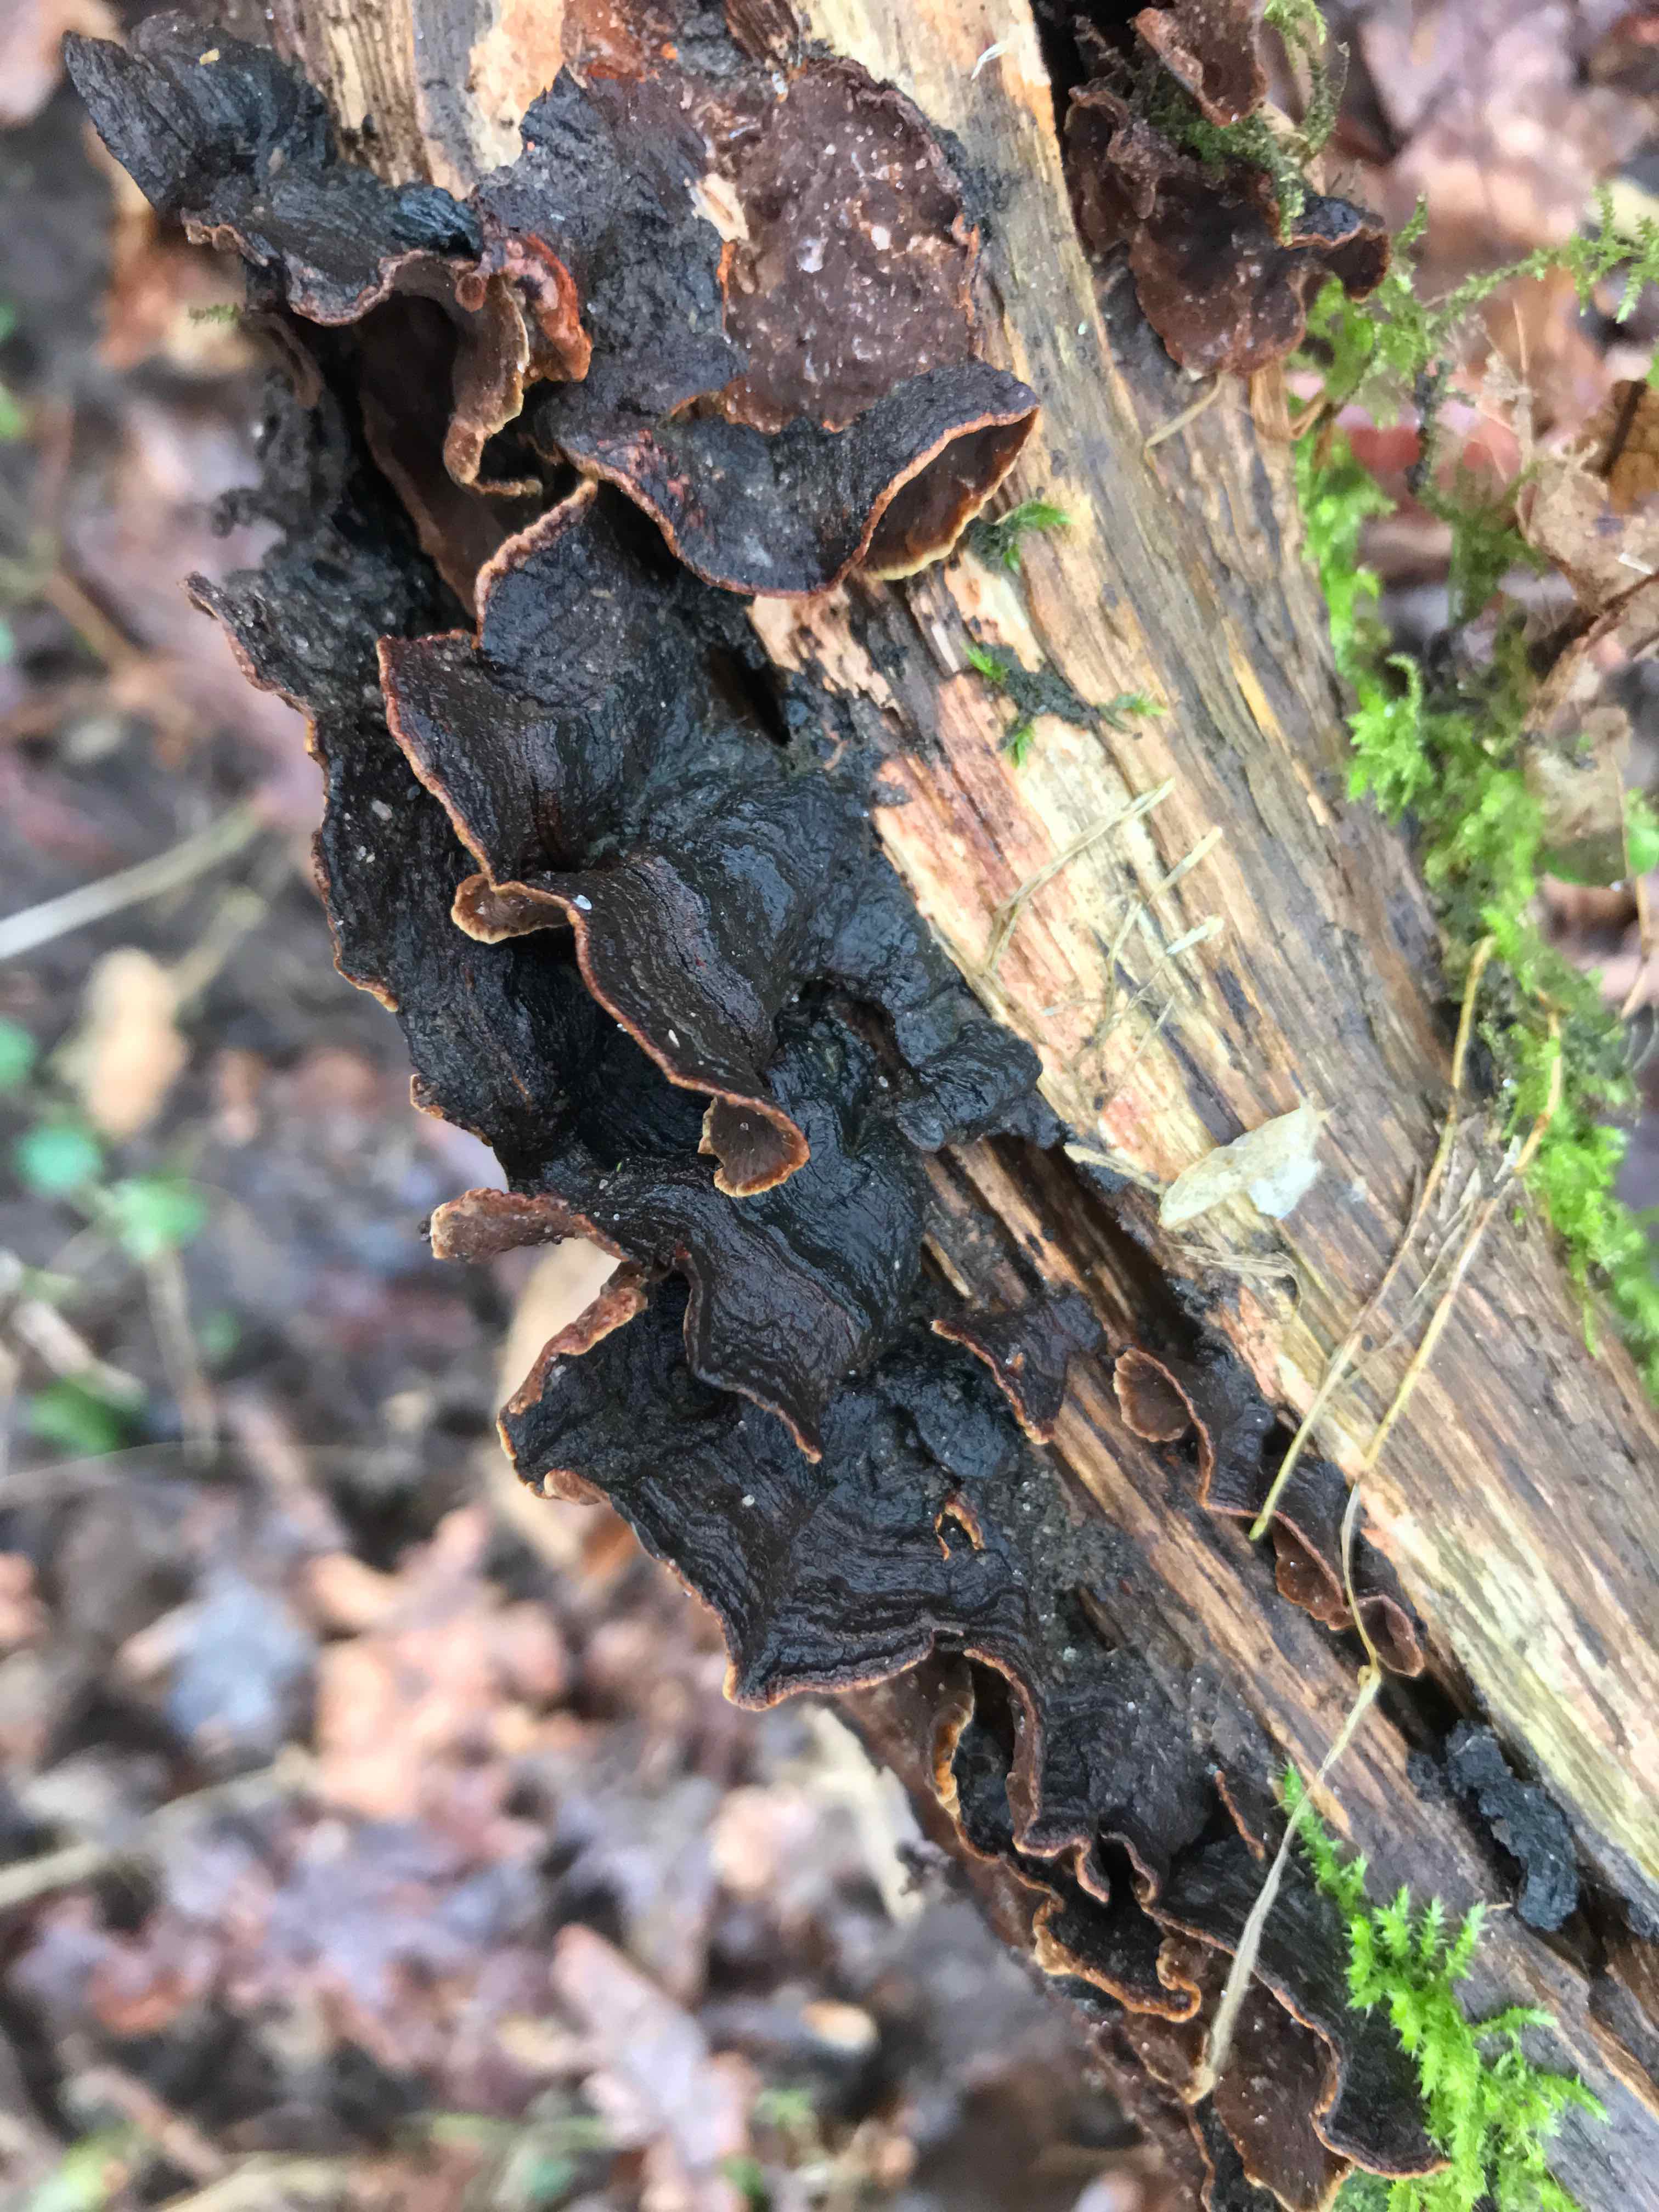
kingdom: Fungi
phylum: Basidiomycota
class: Agaricomycetes
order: Hymenochaetales
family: Hymenochaetaceae
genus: Hymenochaete
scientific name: Hymenochaete rubiginosa
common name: stiv ruslædersvamp
